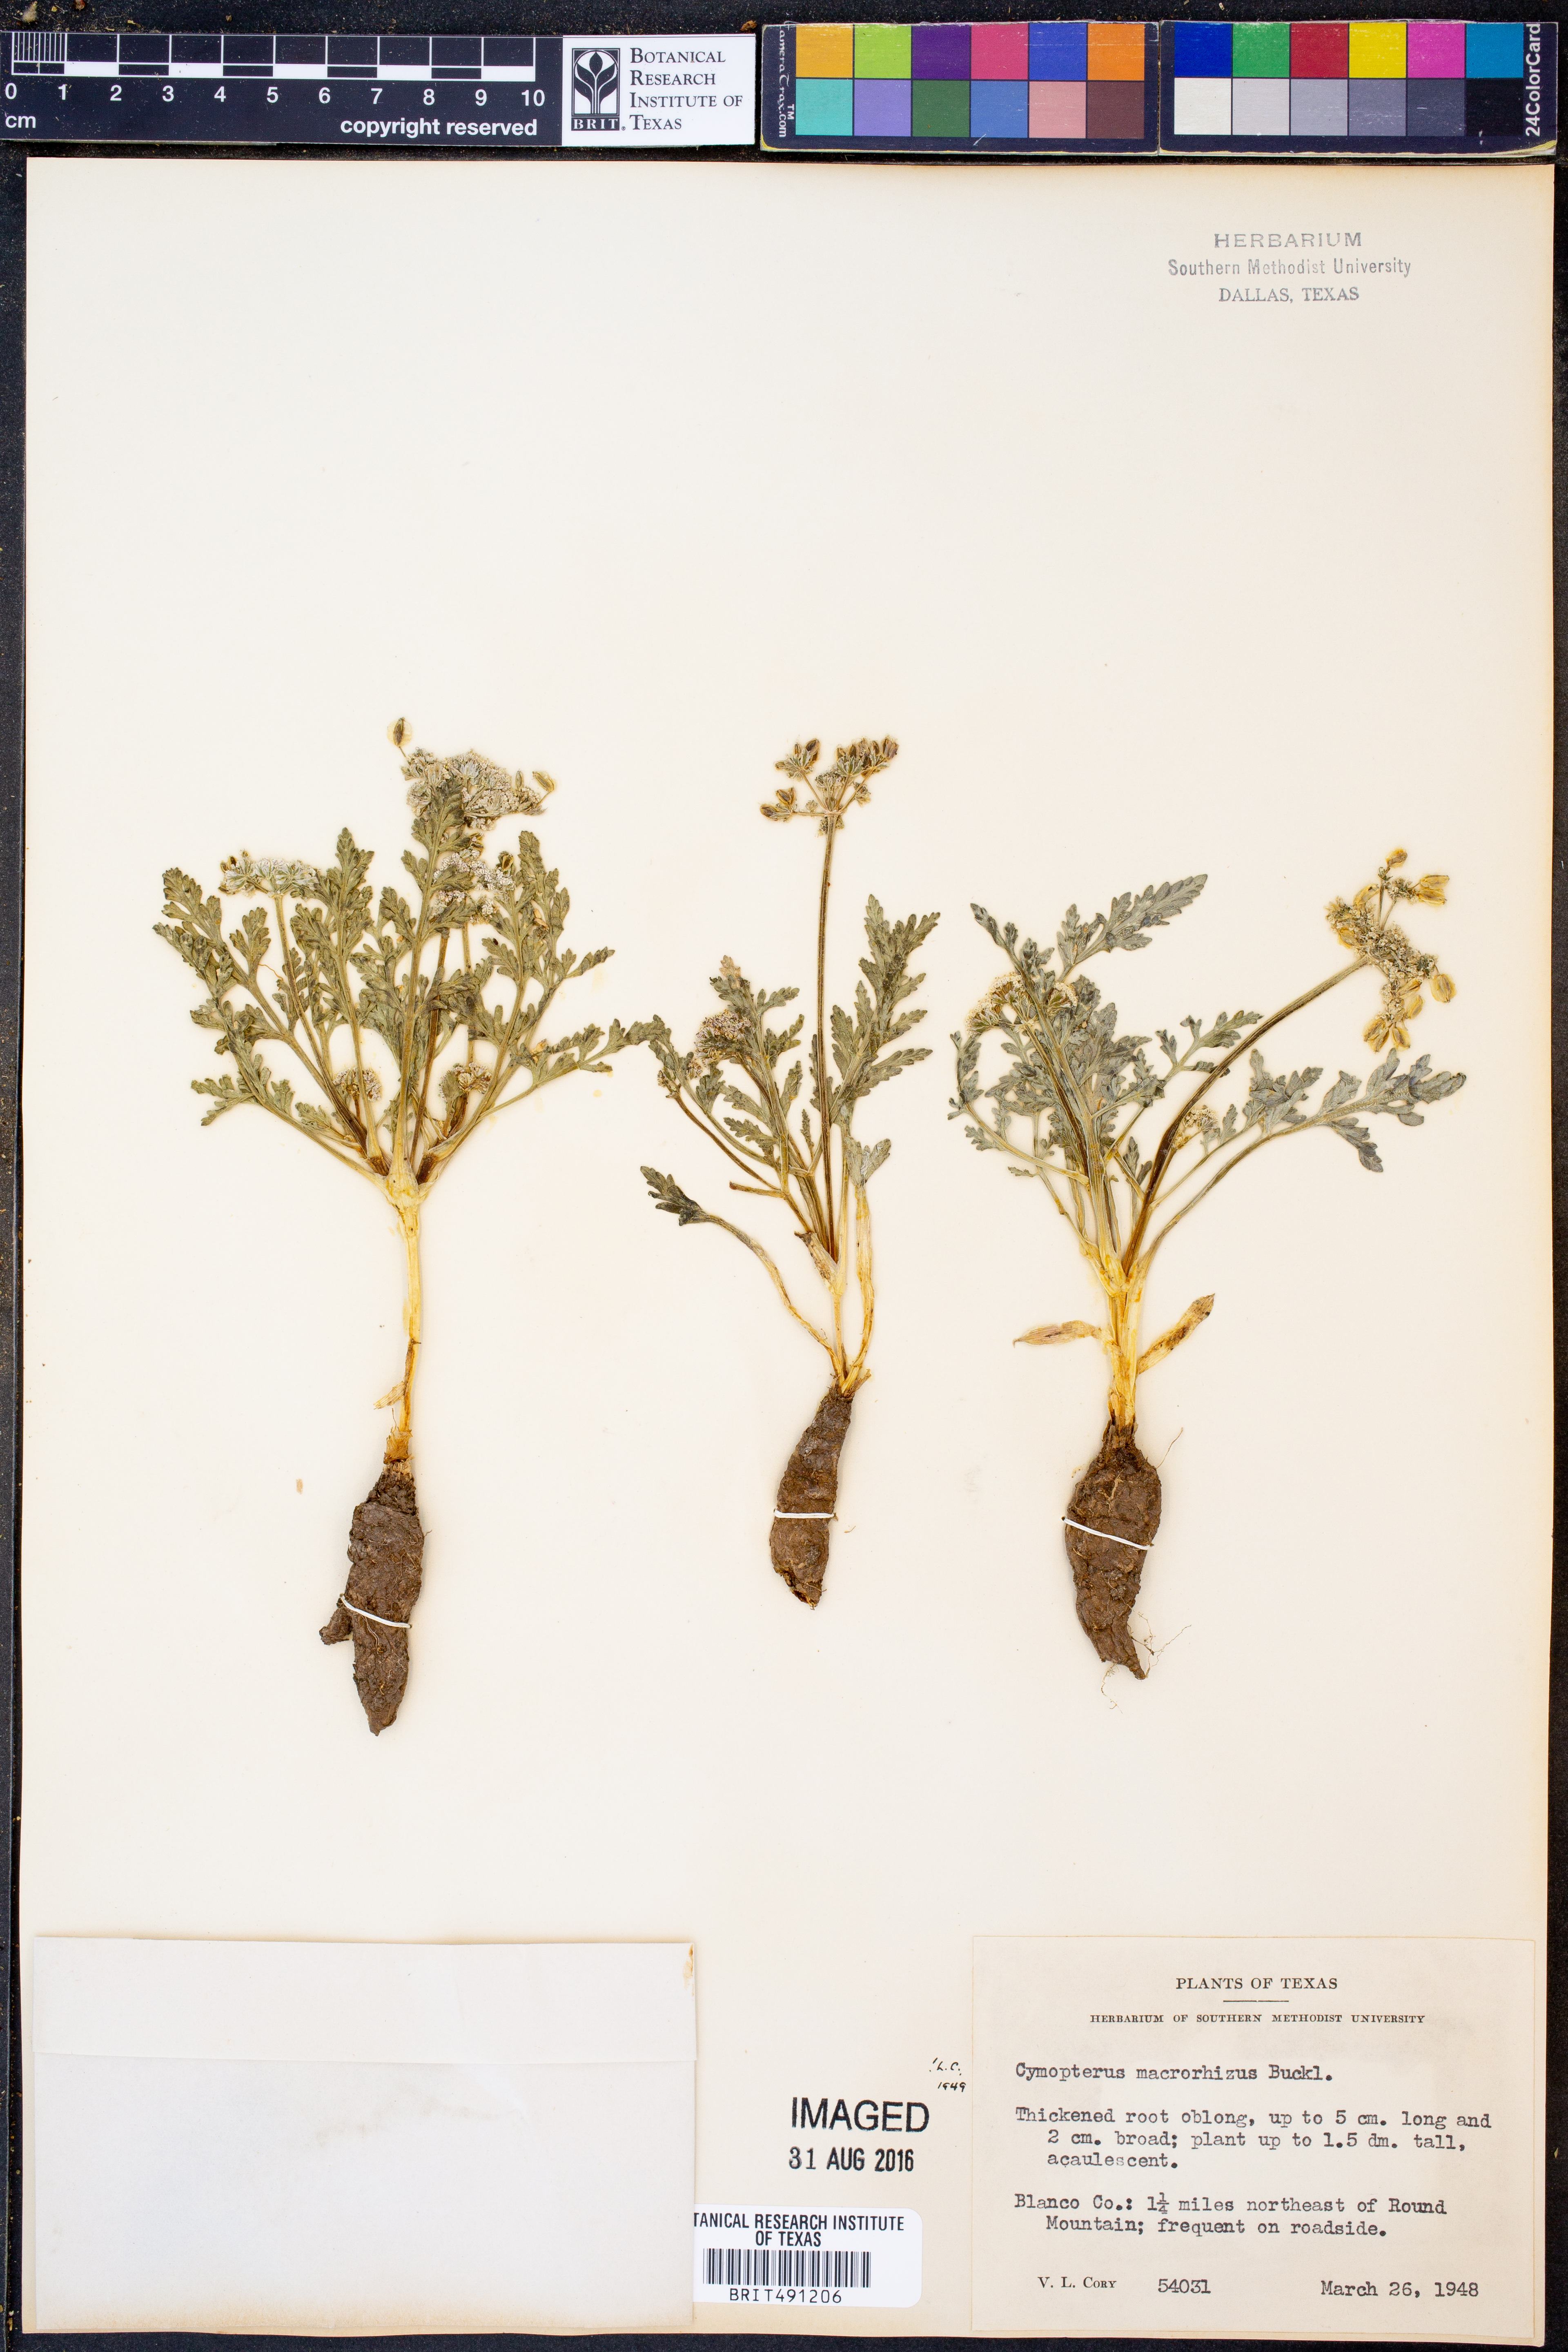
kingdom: Plantae
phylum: Tracheophyta
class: Magnoliopsida
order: Apiales
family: Apiaceae
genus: Vesper
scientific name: Vesper macrorhizus
